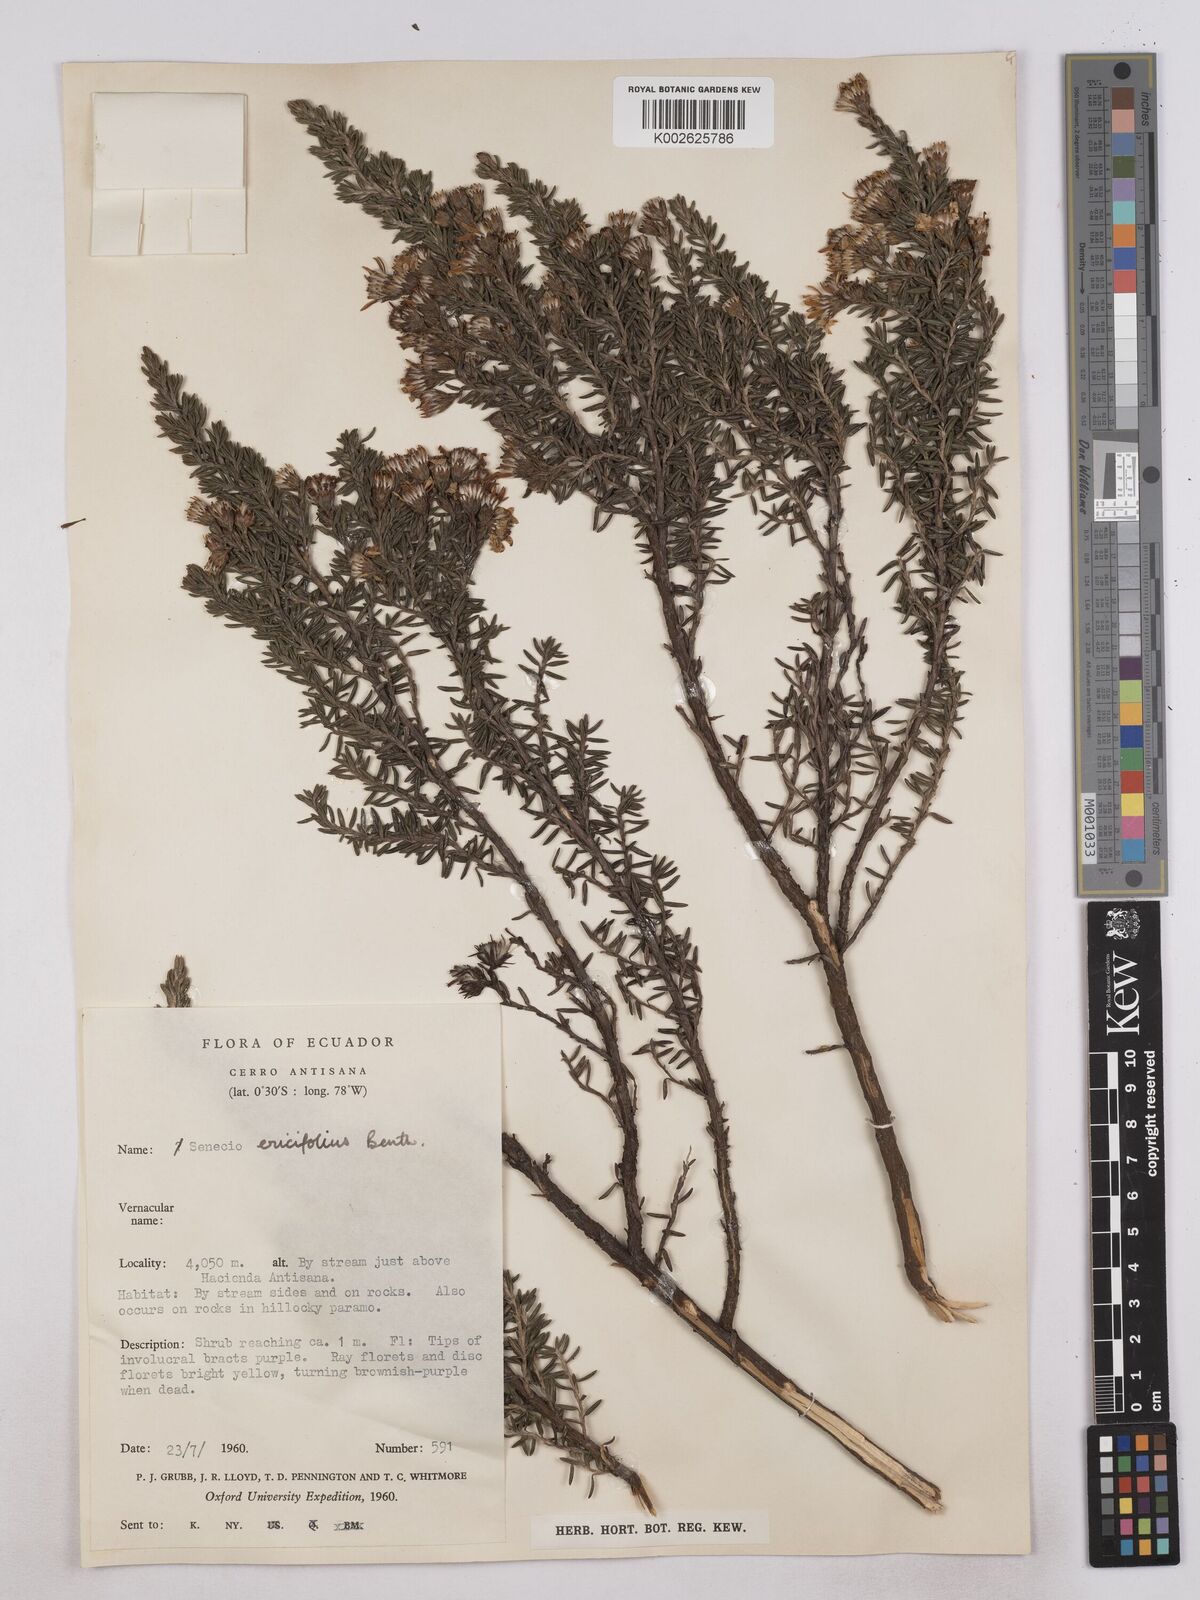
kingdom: Plantae
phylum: Tracheophyta
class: Magnoliopsida
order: Asterales
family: Asteraceae
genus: Monticalia
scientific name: Monticalia peruviana
